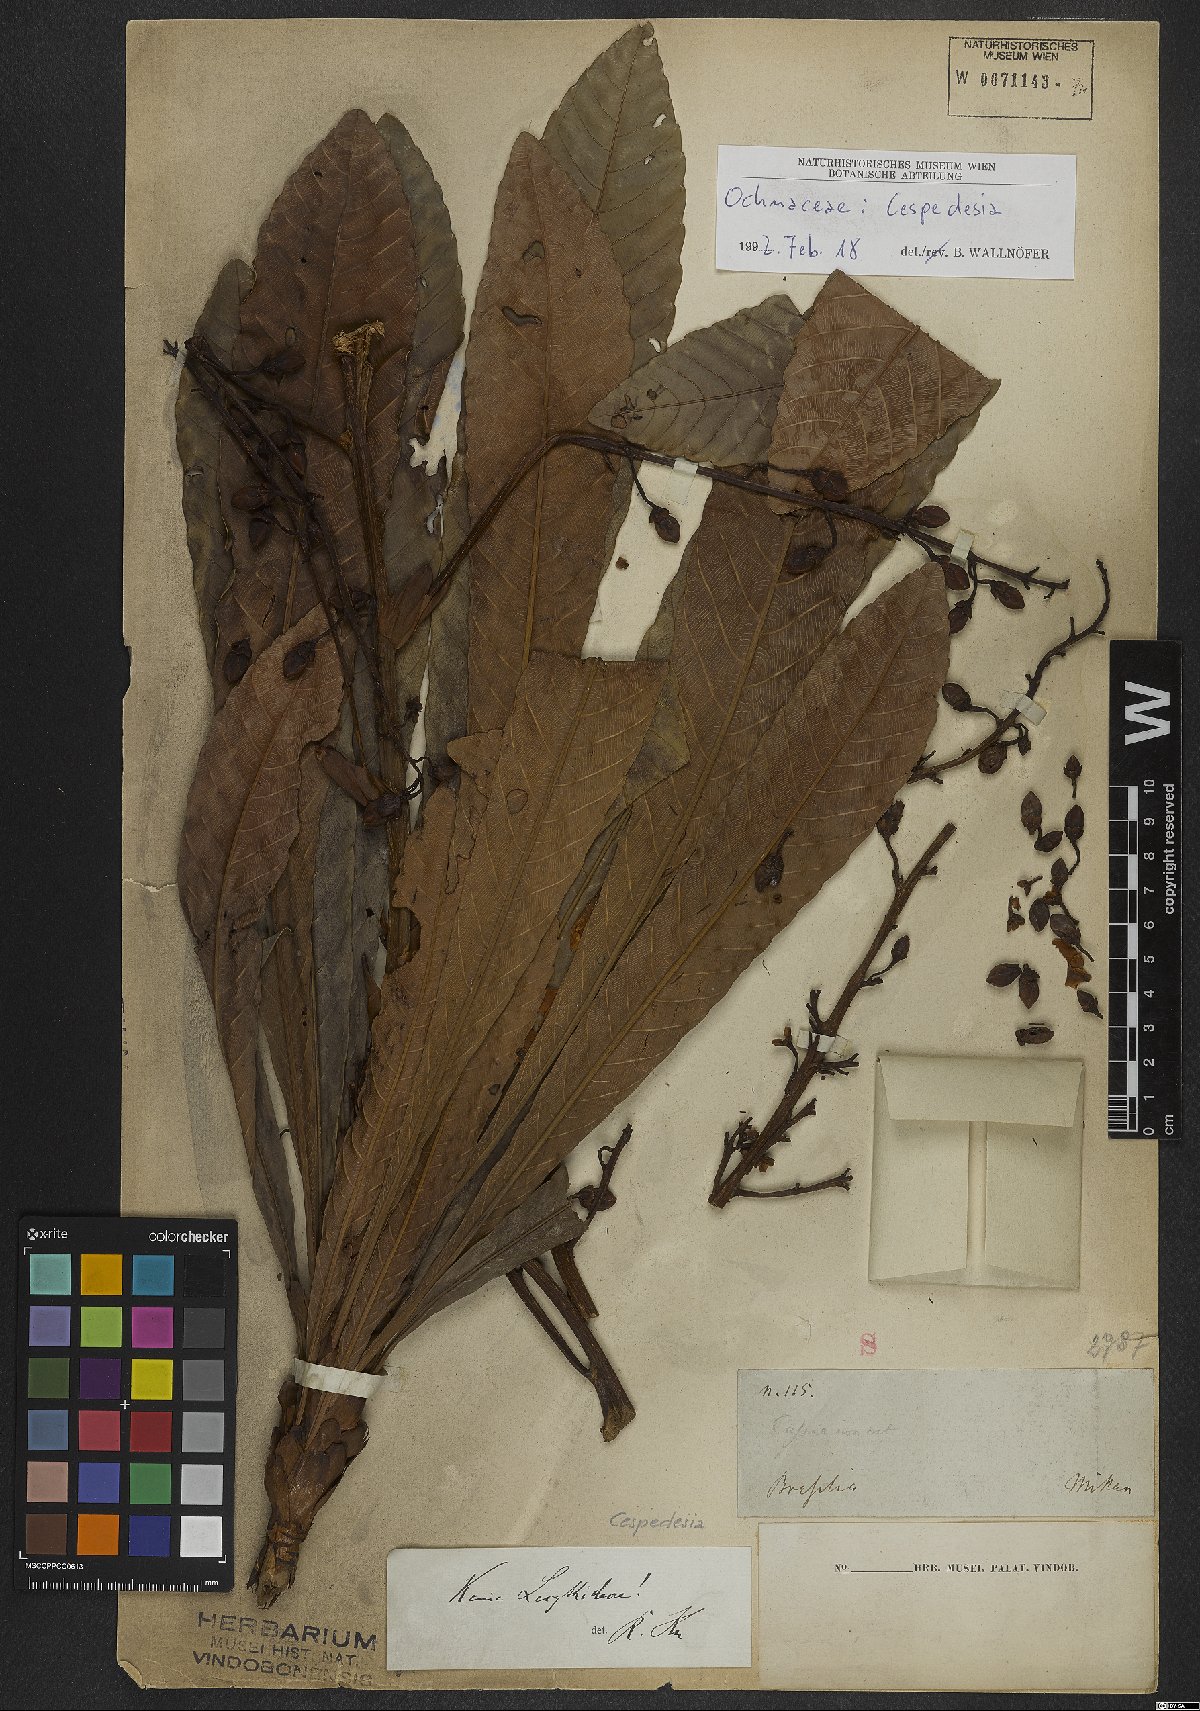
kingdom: Plantae
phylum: Tracheophyta
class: Magnoliopsida
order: Malpighiales
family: Ochnaceae
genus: Cespedesia
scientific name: Cespedesia
